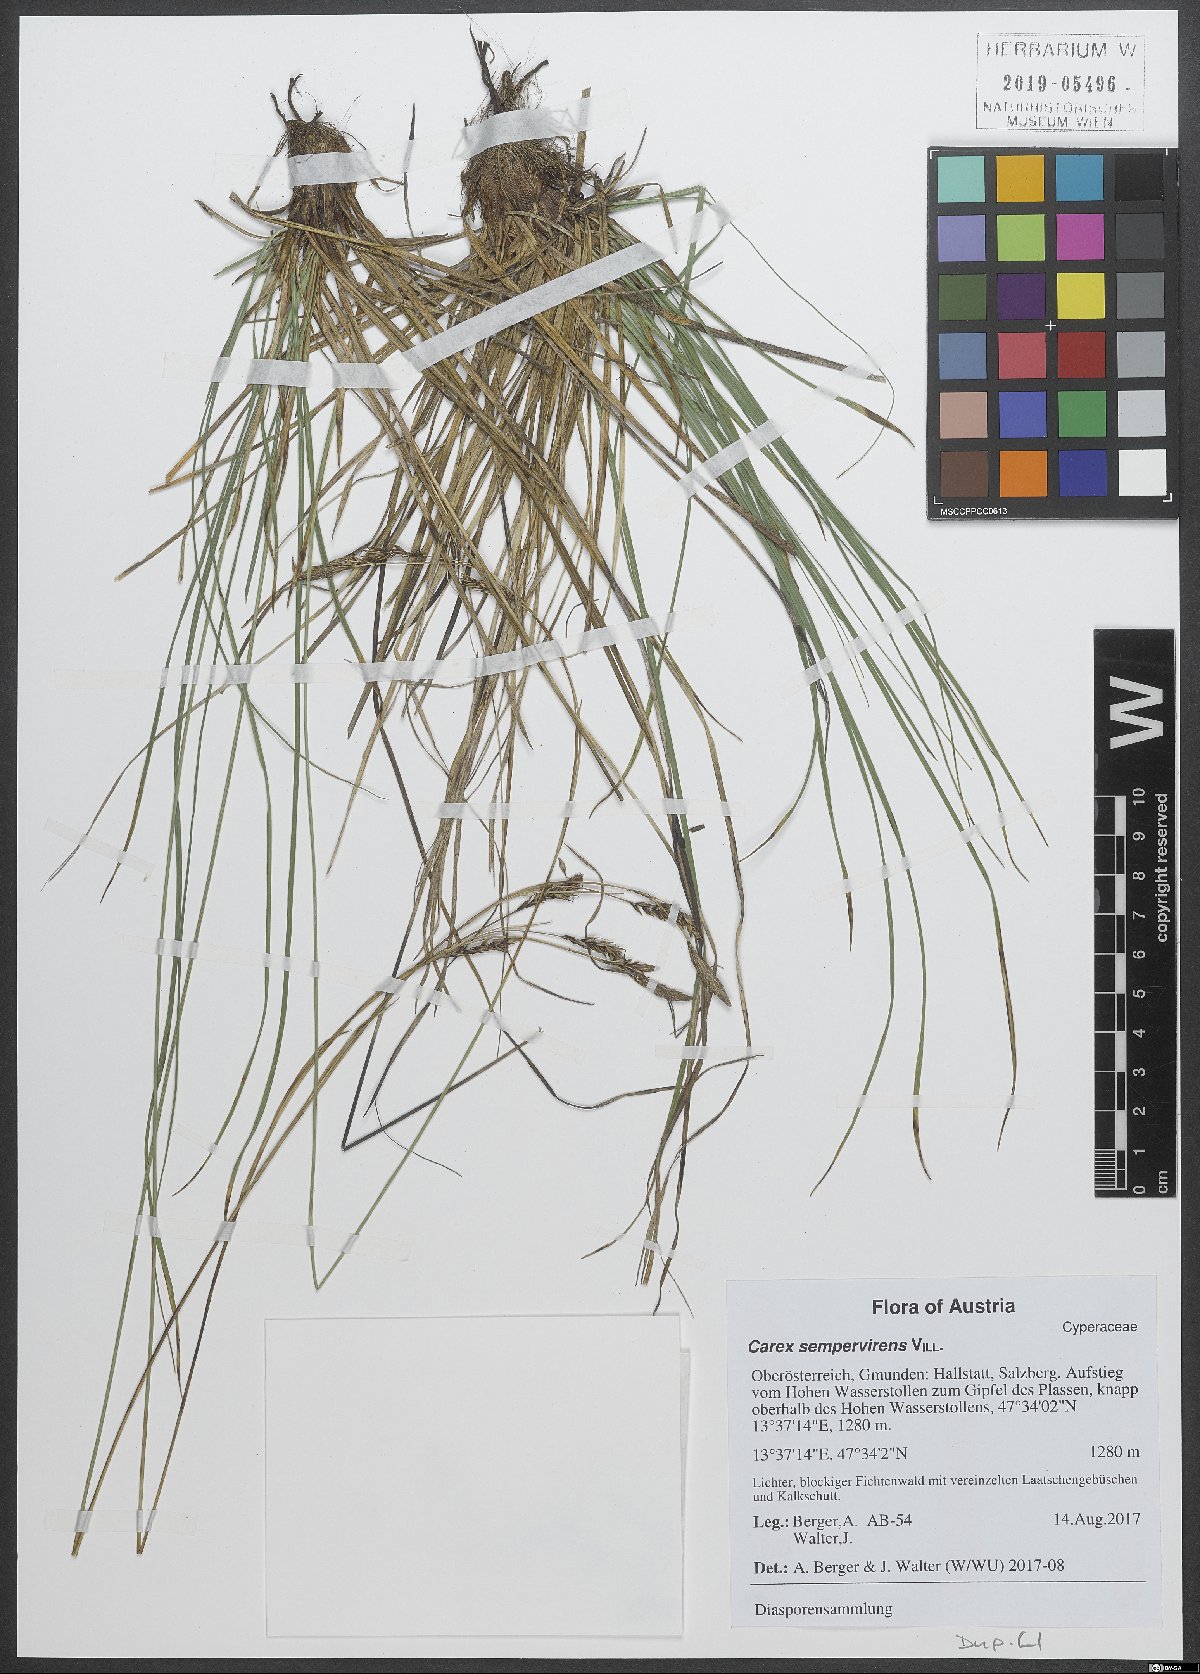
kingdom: Plantae
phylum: Tracheophyta
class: Liliopsida
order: Poales
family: Cyperaceae
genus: Carex
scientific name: Carex sempervirens
